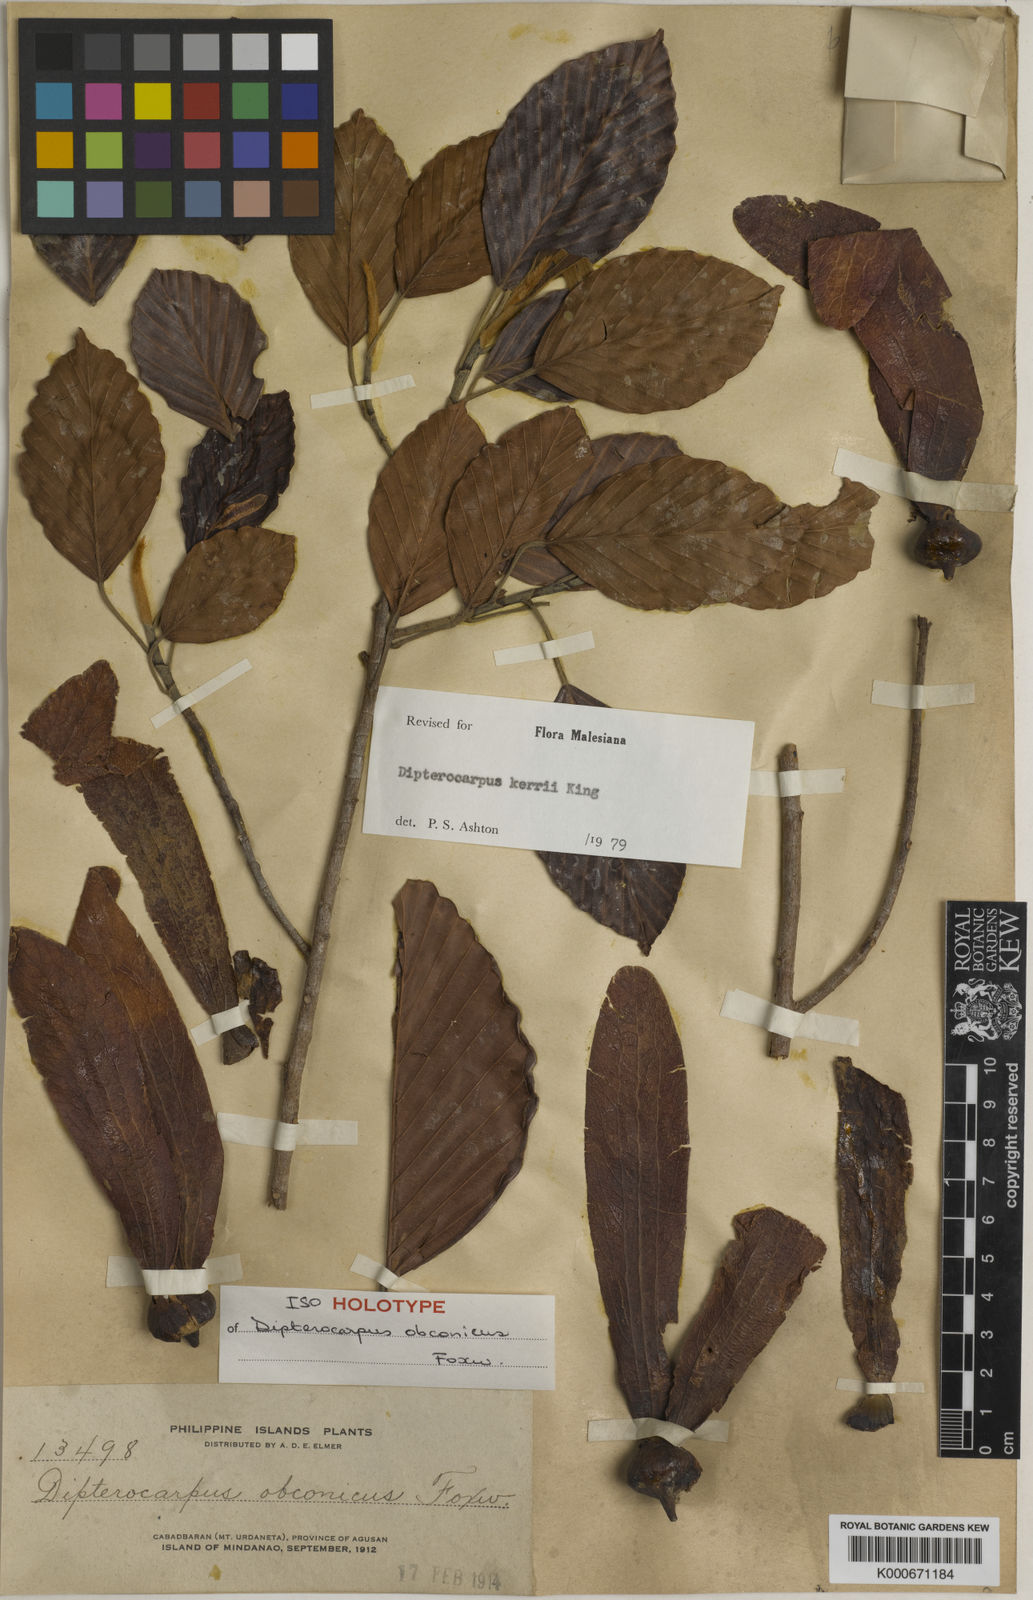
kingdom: Plantae
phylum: Tracheophyta
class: Magnoliopsida
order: Malvales
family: Dipterocarpaceae
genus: Dipterocarpus
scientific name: Dipterocarpus kerrii
